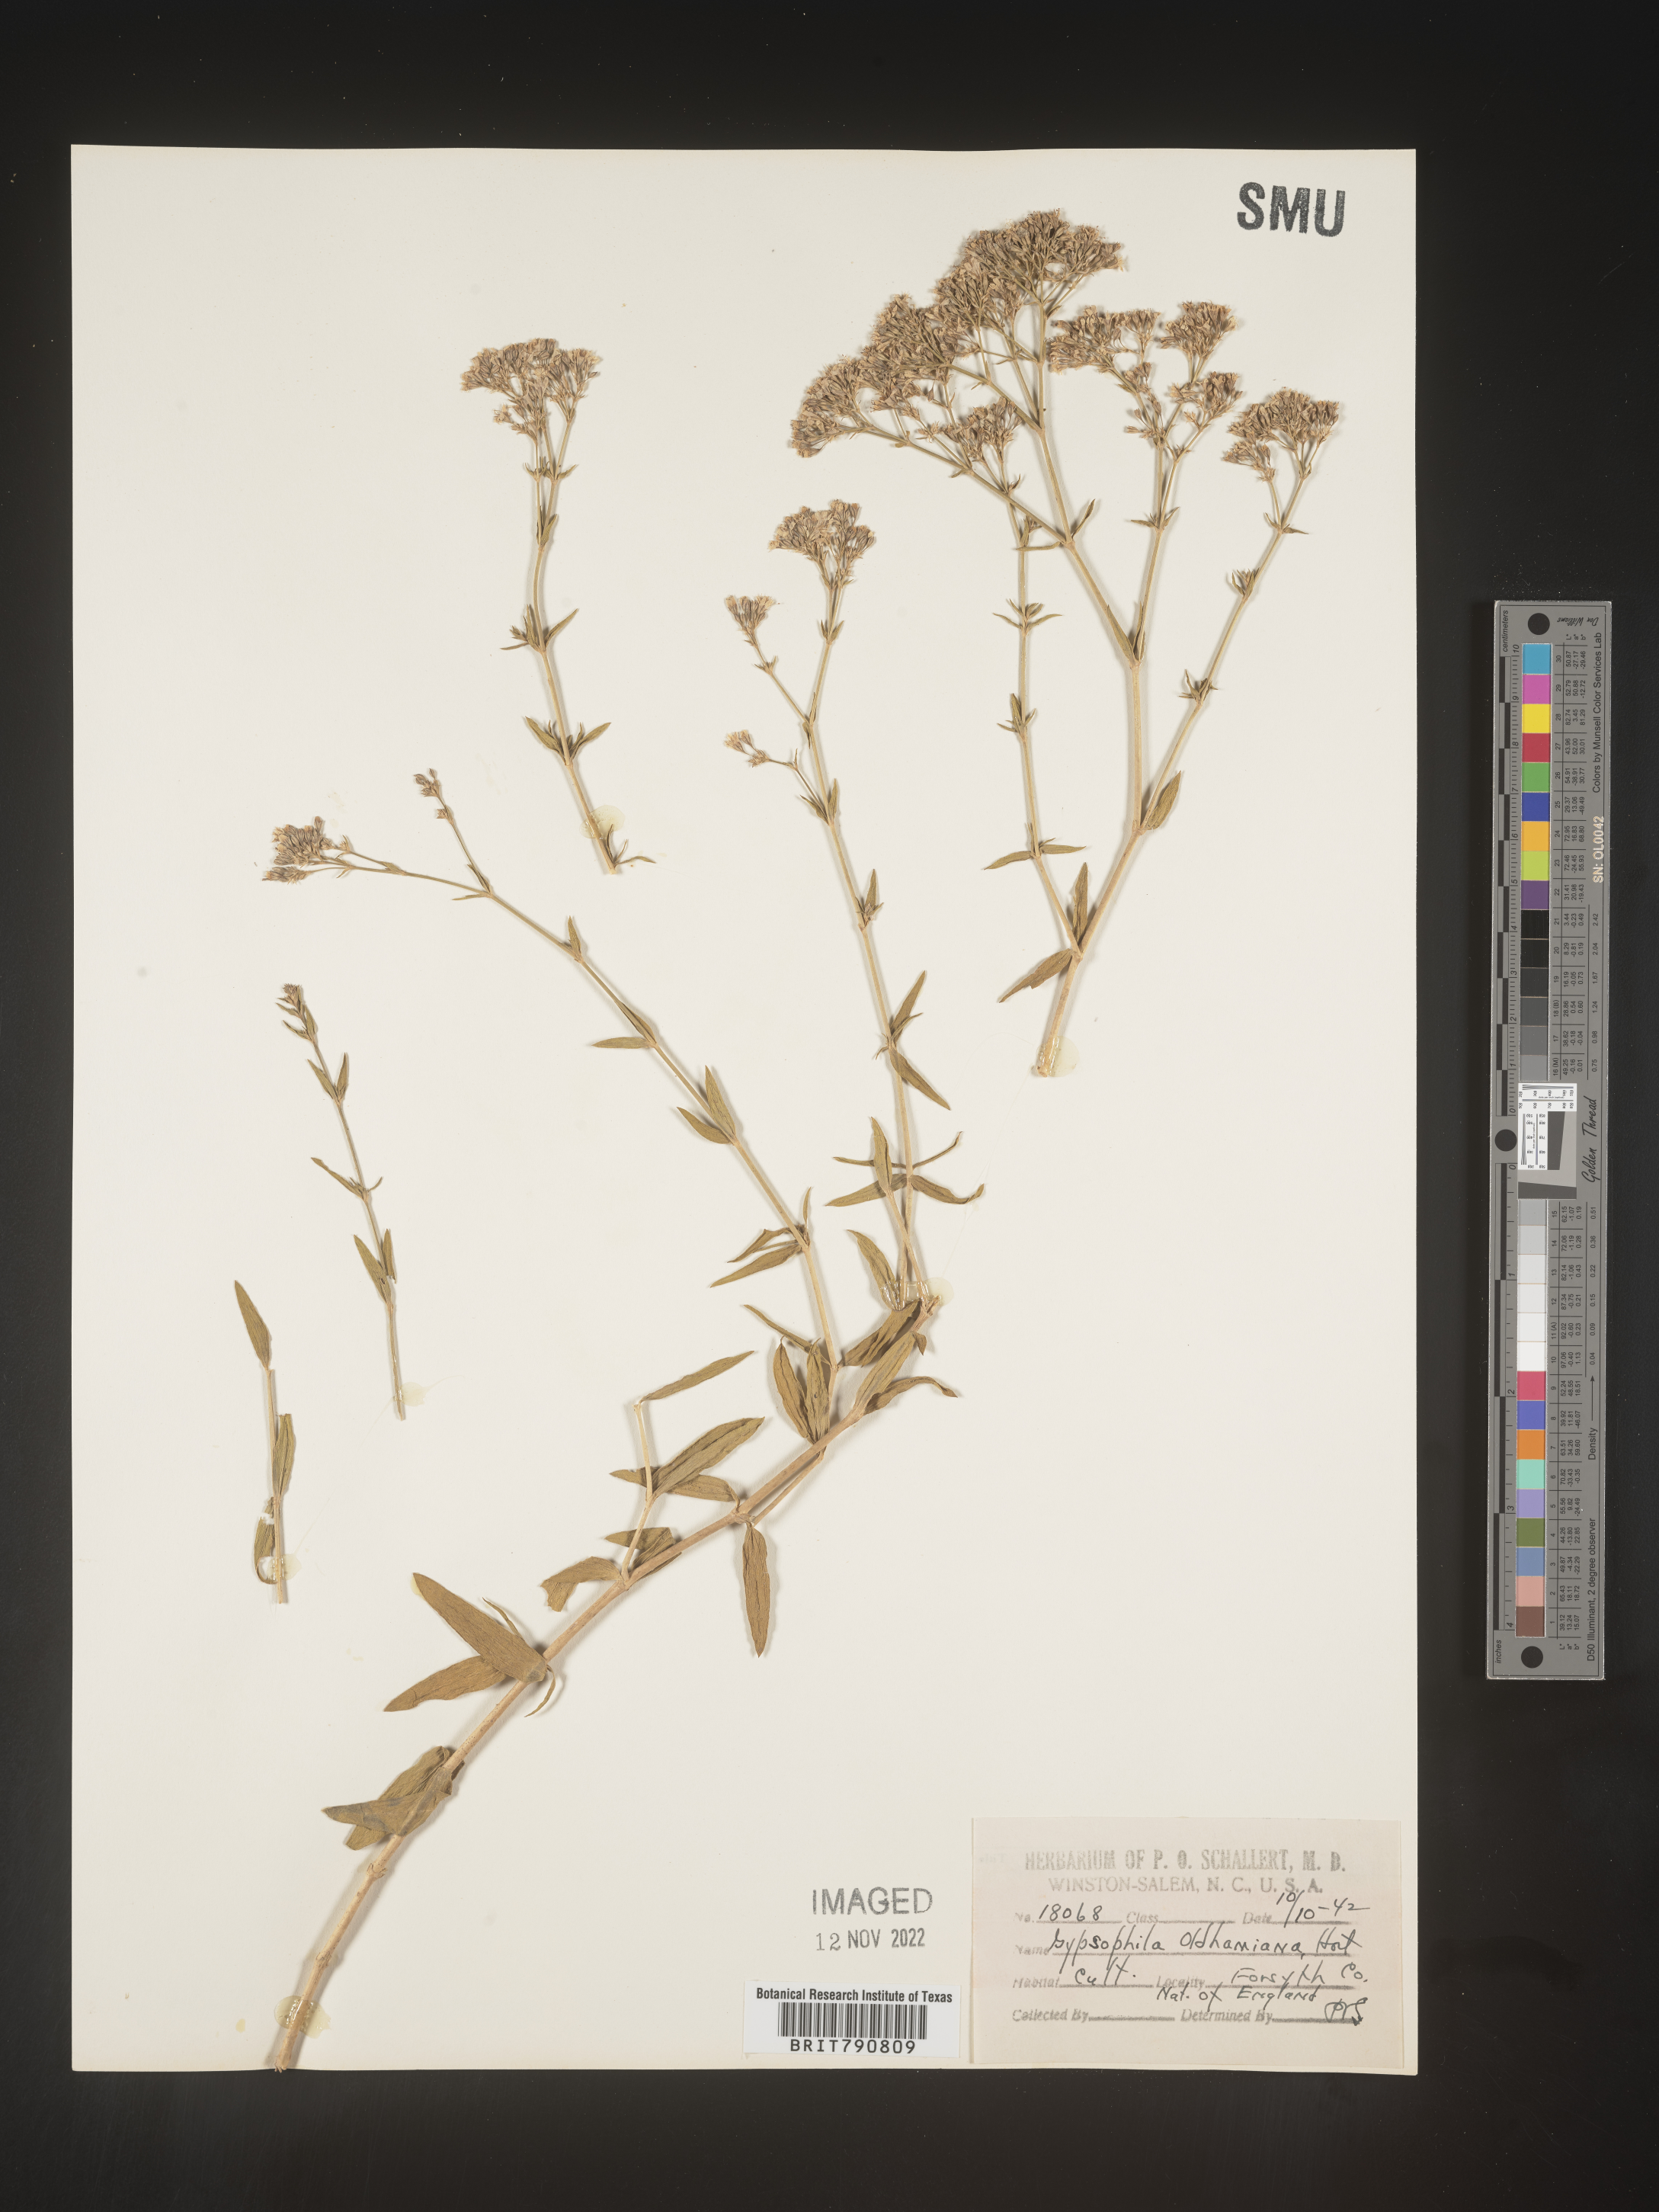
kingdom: Plantae
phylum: Tracheophyta
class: Magnoliopsida
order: Caryophyllales
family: Caryophyllaceae
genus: Gypsophila
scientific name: Gypsophila
